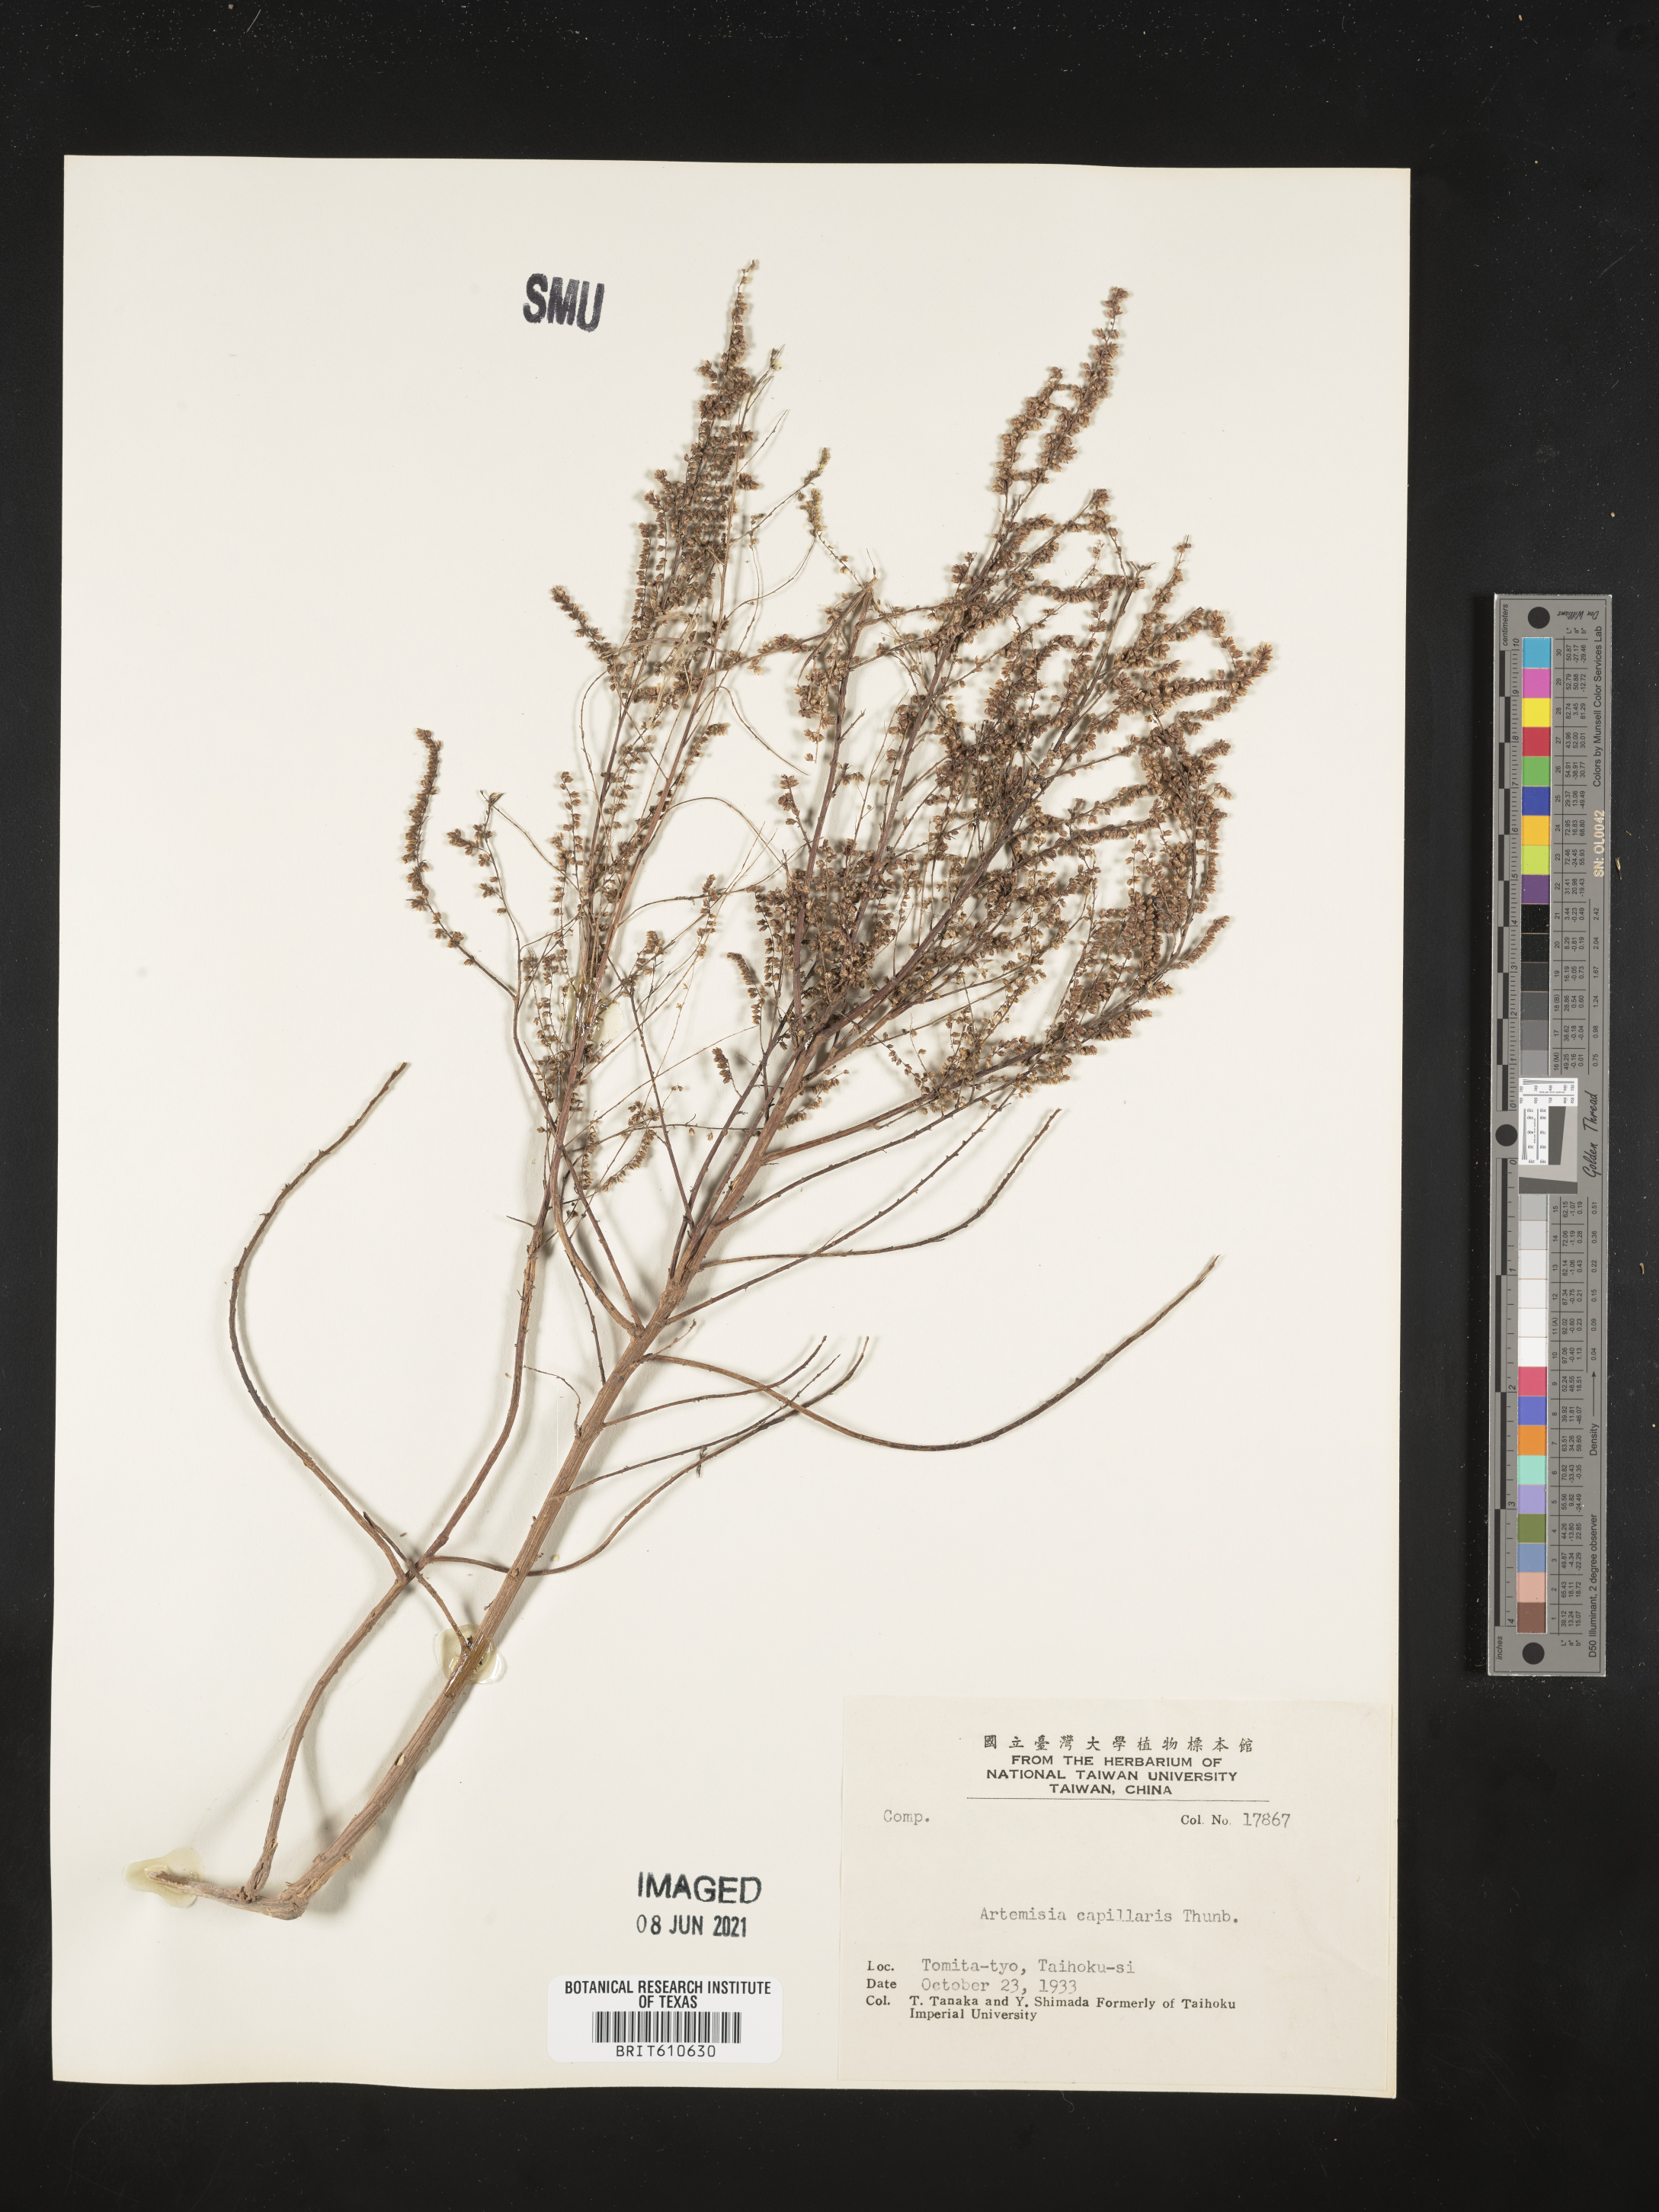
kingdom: Plantae
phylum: Tracheophyta
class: Magnoliopsida
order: Asterales
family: Asteraceae
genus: Artemisia
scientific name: Artemisia capillaris
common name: Yin-chen wormwood
